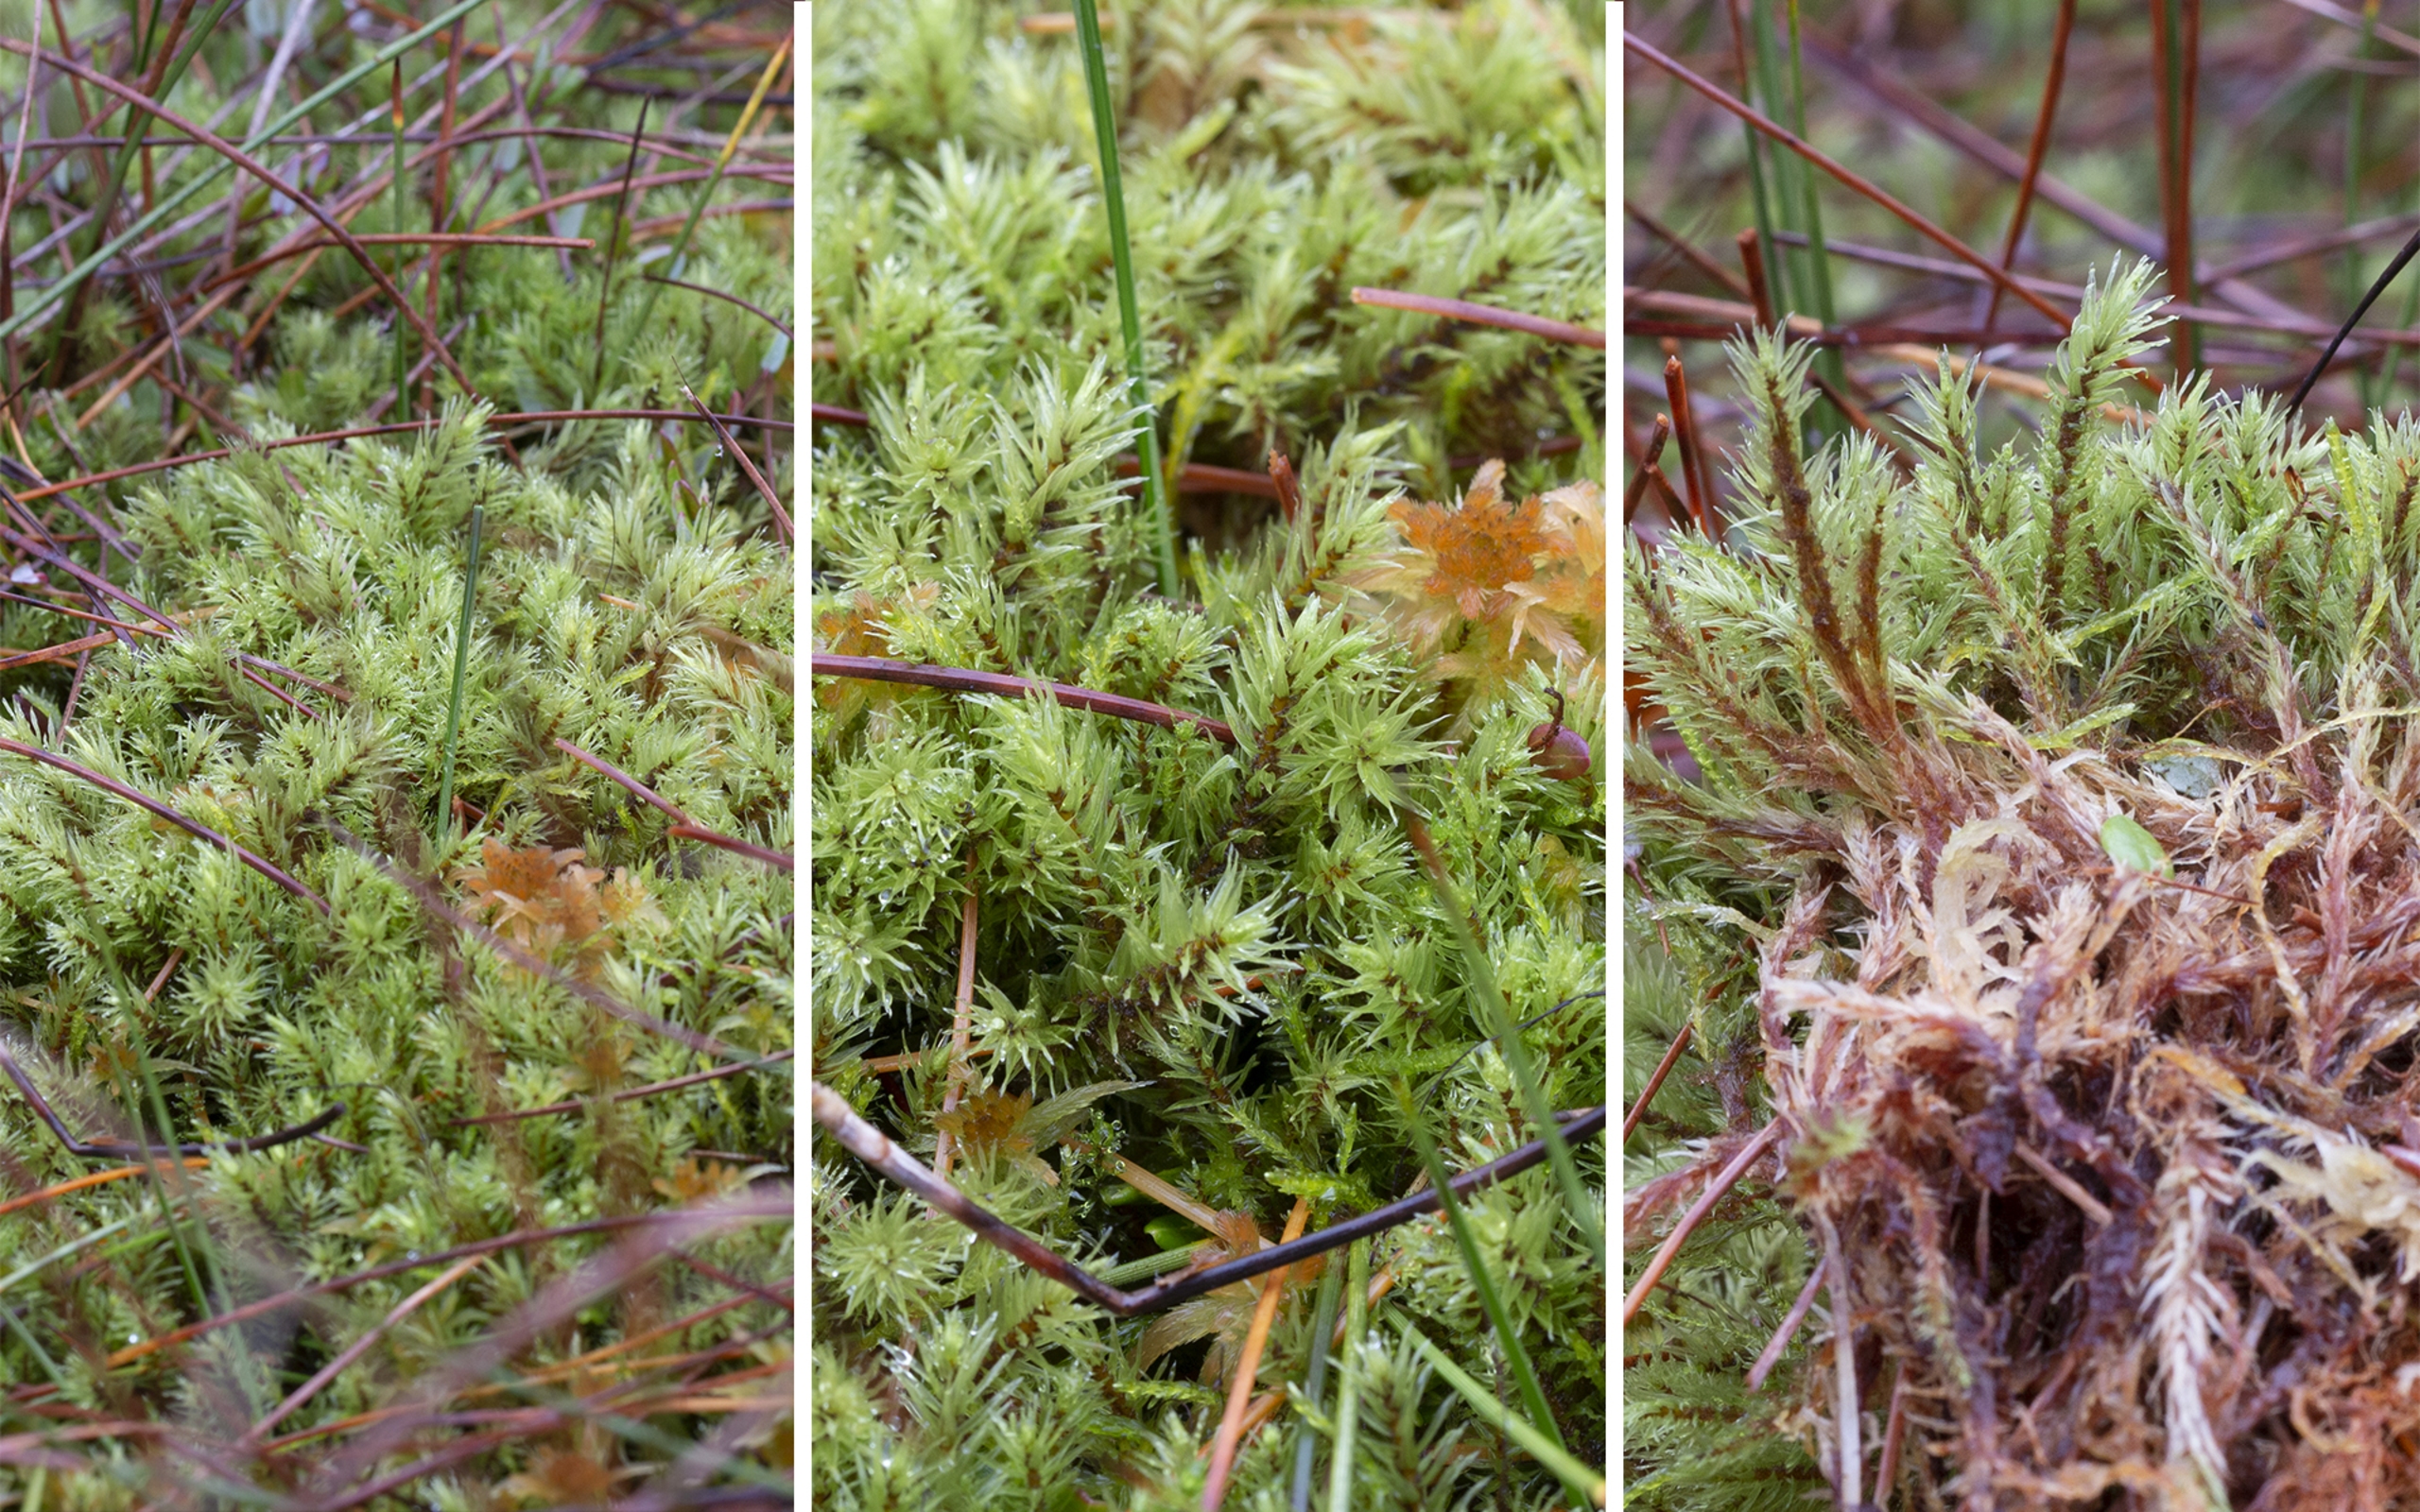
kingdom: Plantae
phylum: Bryophyta
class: Bryopsida
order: Aulacomniales
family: Aulacomniaceae
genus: Aulacomnium
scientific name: Aulacomnium palustre
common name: Almindelig filtmos
